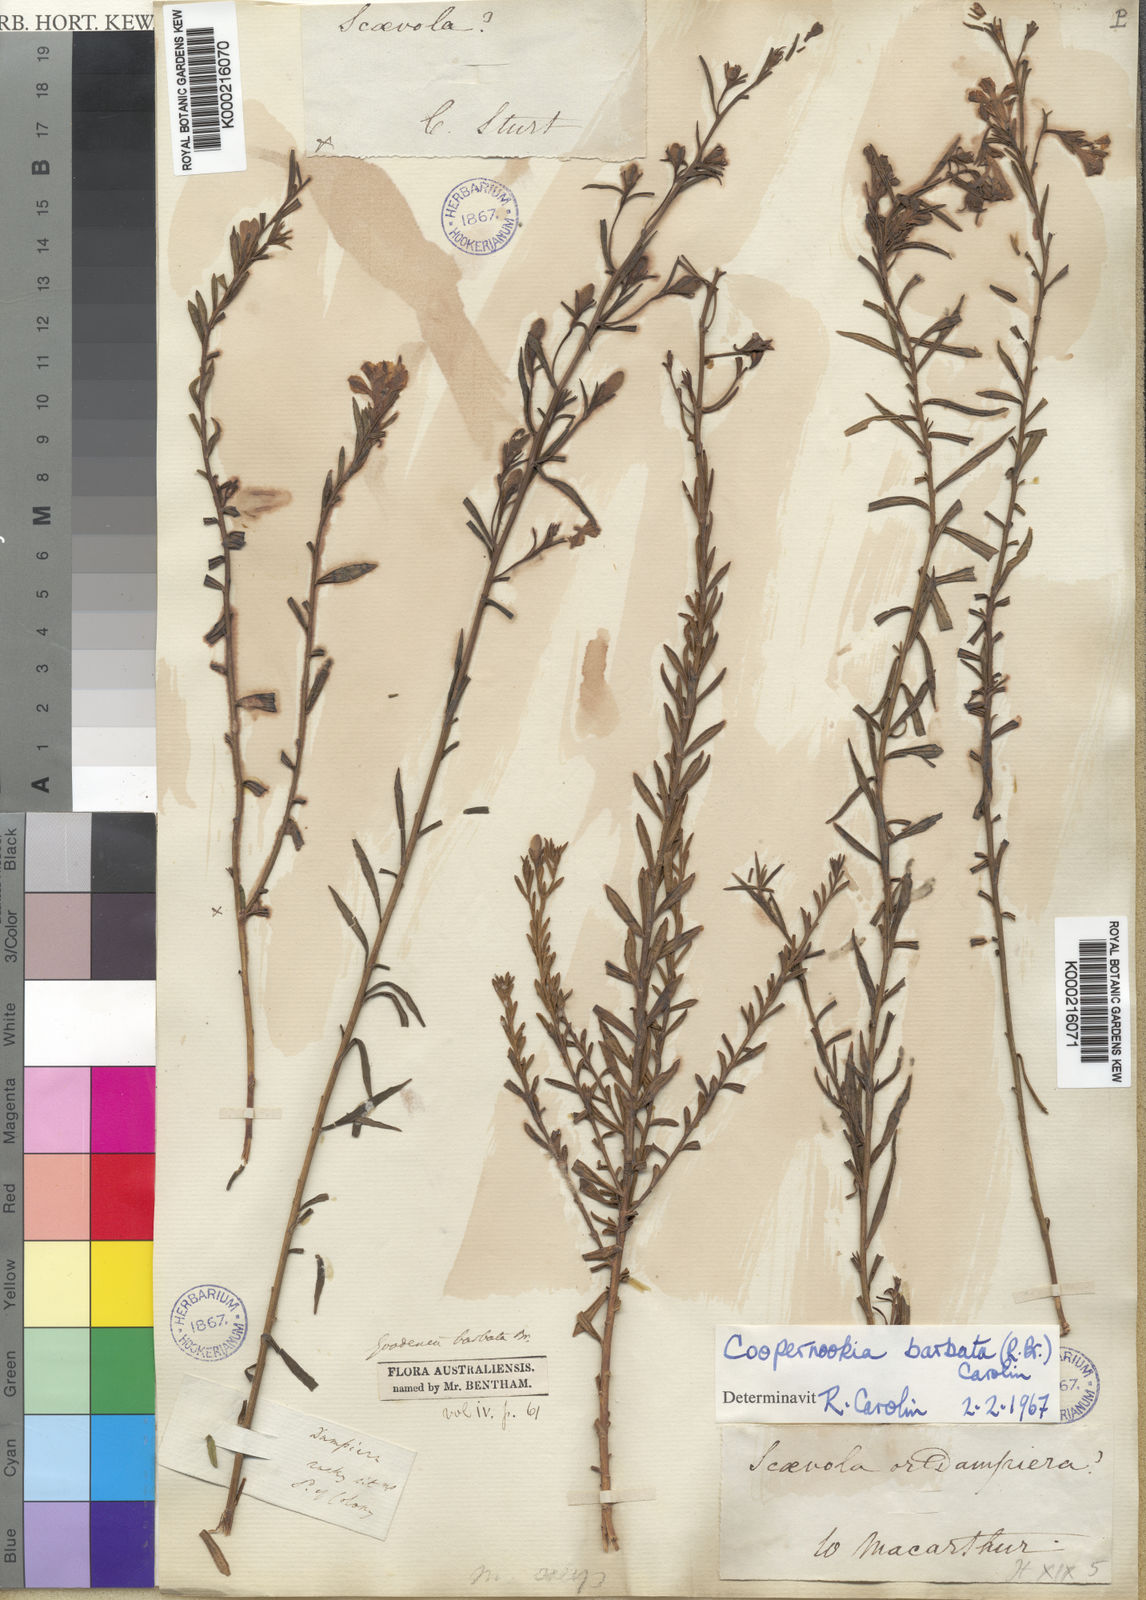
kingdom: Plantae
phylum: Tracheophyta
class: Magnoliopsida
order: Asterales
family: Goodeniaceae
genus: Goodenia
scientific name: Goodenia barbata
